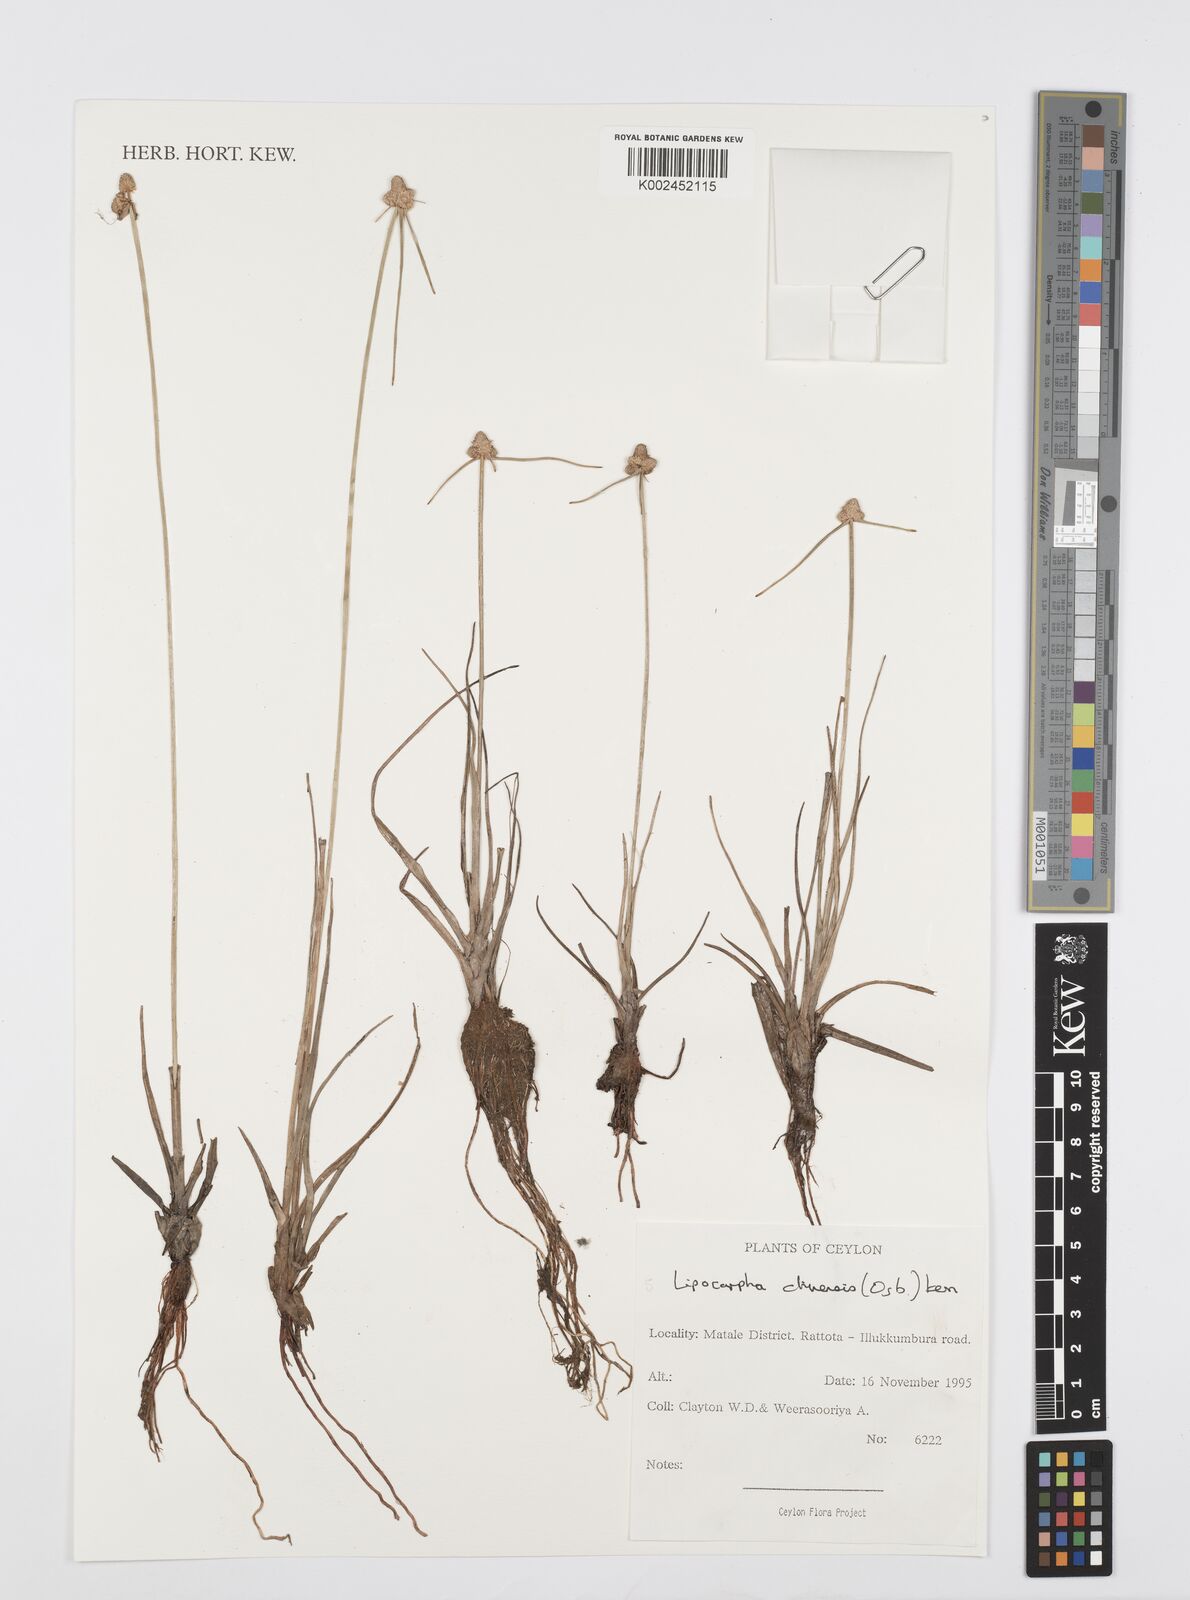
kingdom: Plantae
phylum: Tracheophyta
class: Liliopsida
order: Poales
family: Cyperaceae
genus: Cyperus
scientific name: Cyperus
